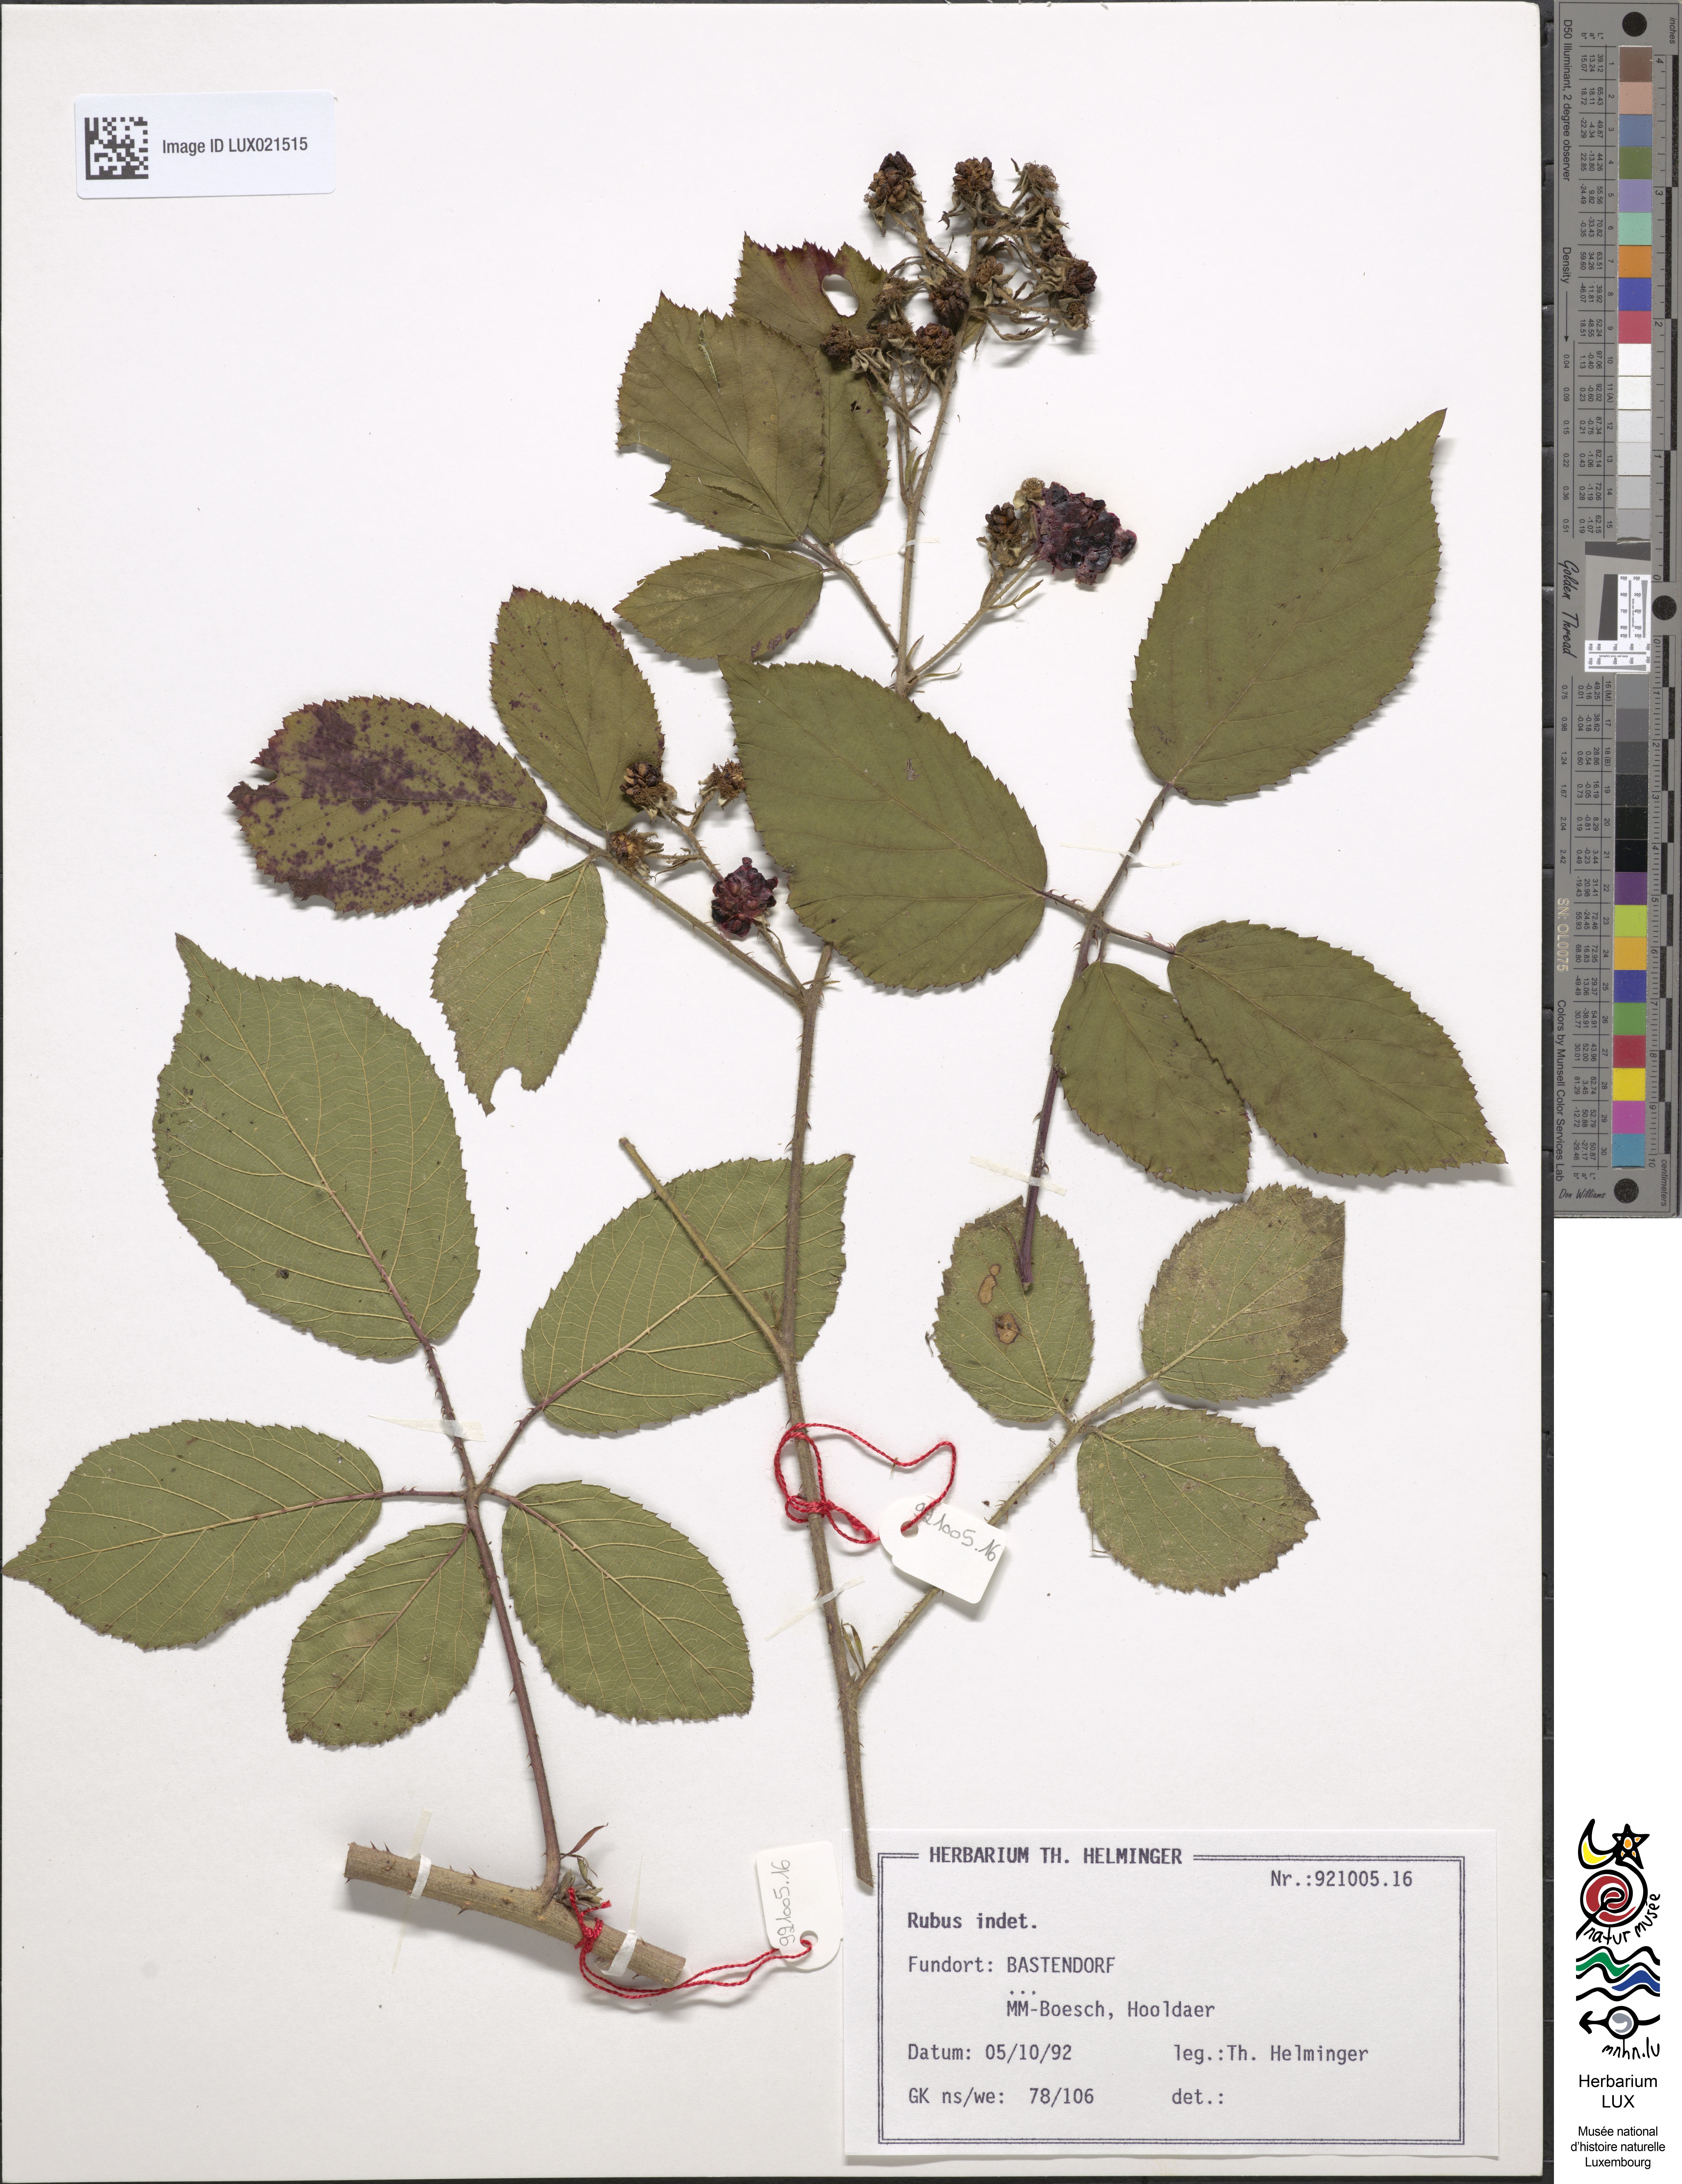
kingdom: Plantae
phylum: Tracheophyta
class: Magnoliopsida
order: Rosales
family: Rosaceae
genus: Rubus
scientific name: Rubus
